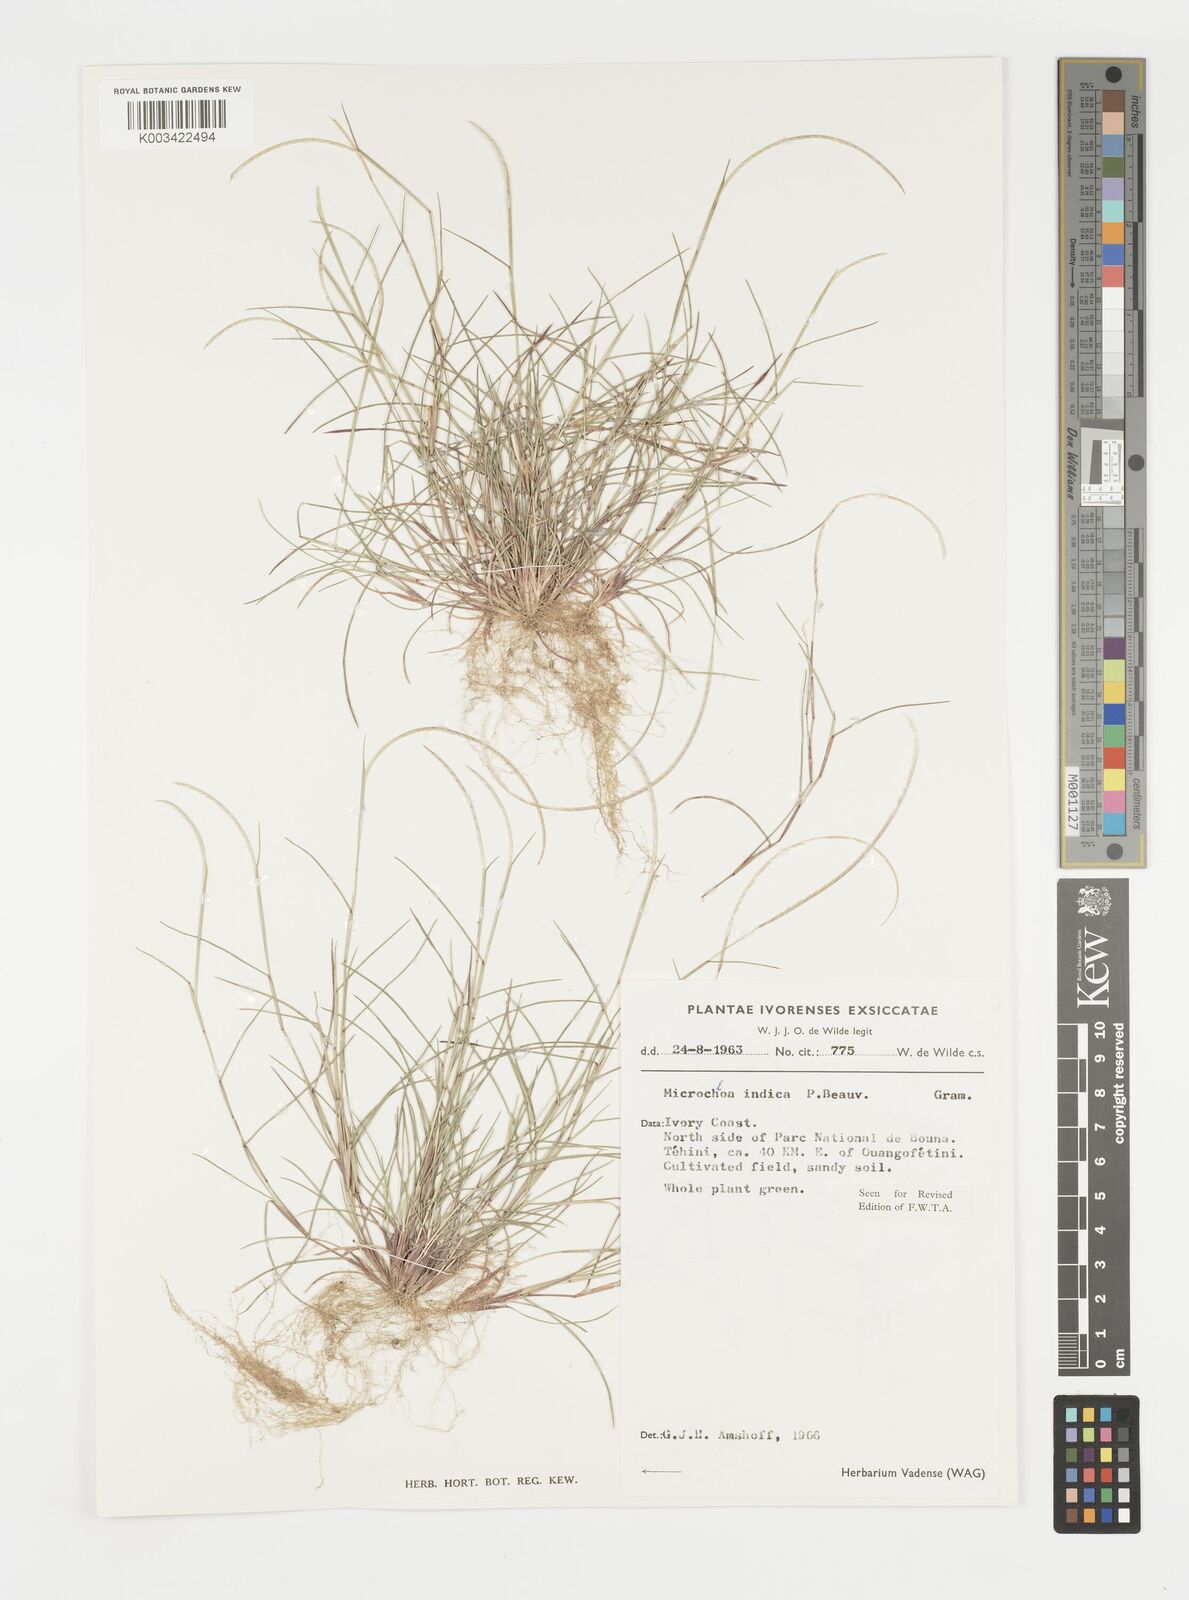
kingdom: Plantae
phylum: Tracheophyta
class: Liliopsida
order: Poales
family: Poaceae
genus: Microchloa
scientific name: Microchloa indica
